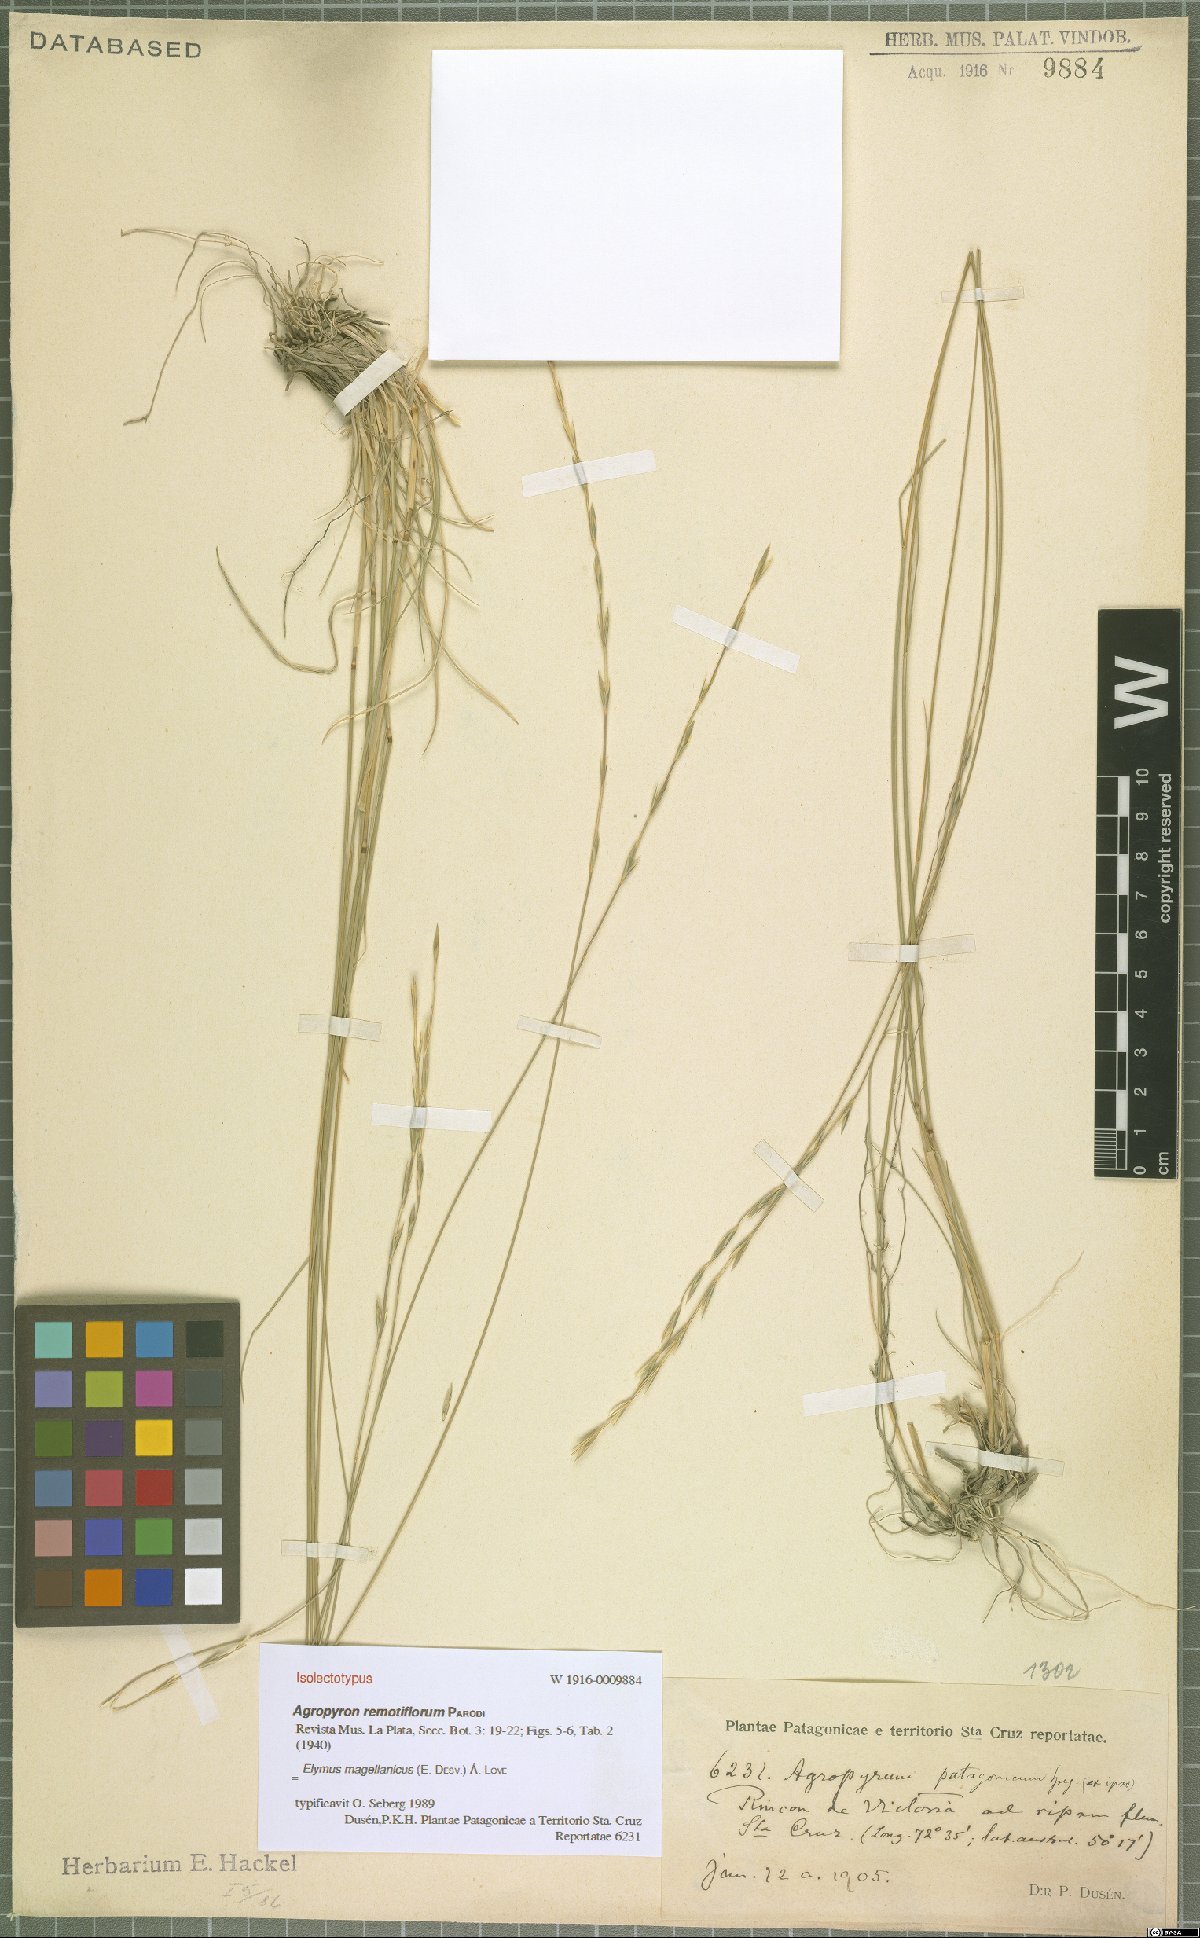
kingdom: Plantae
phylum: Tracheophyta
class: Liliopsida
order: Poales
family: Poaceae
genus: Elymus
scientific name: Elymus magellanicus
